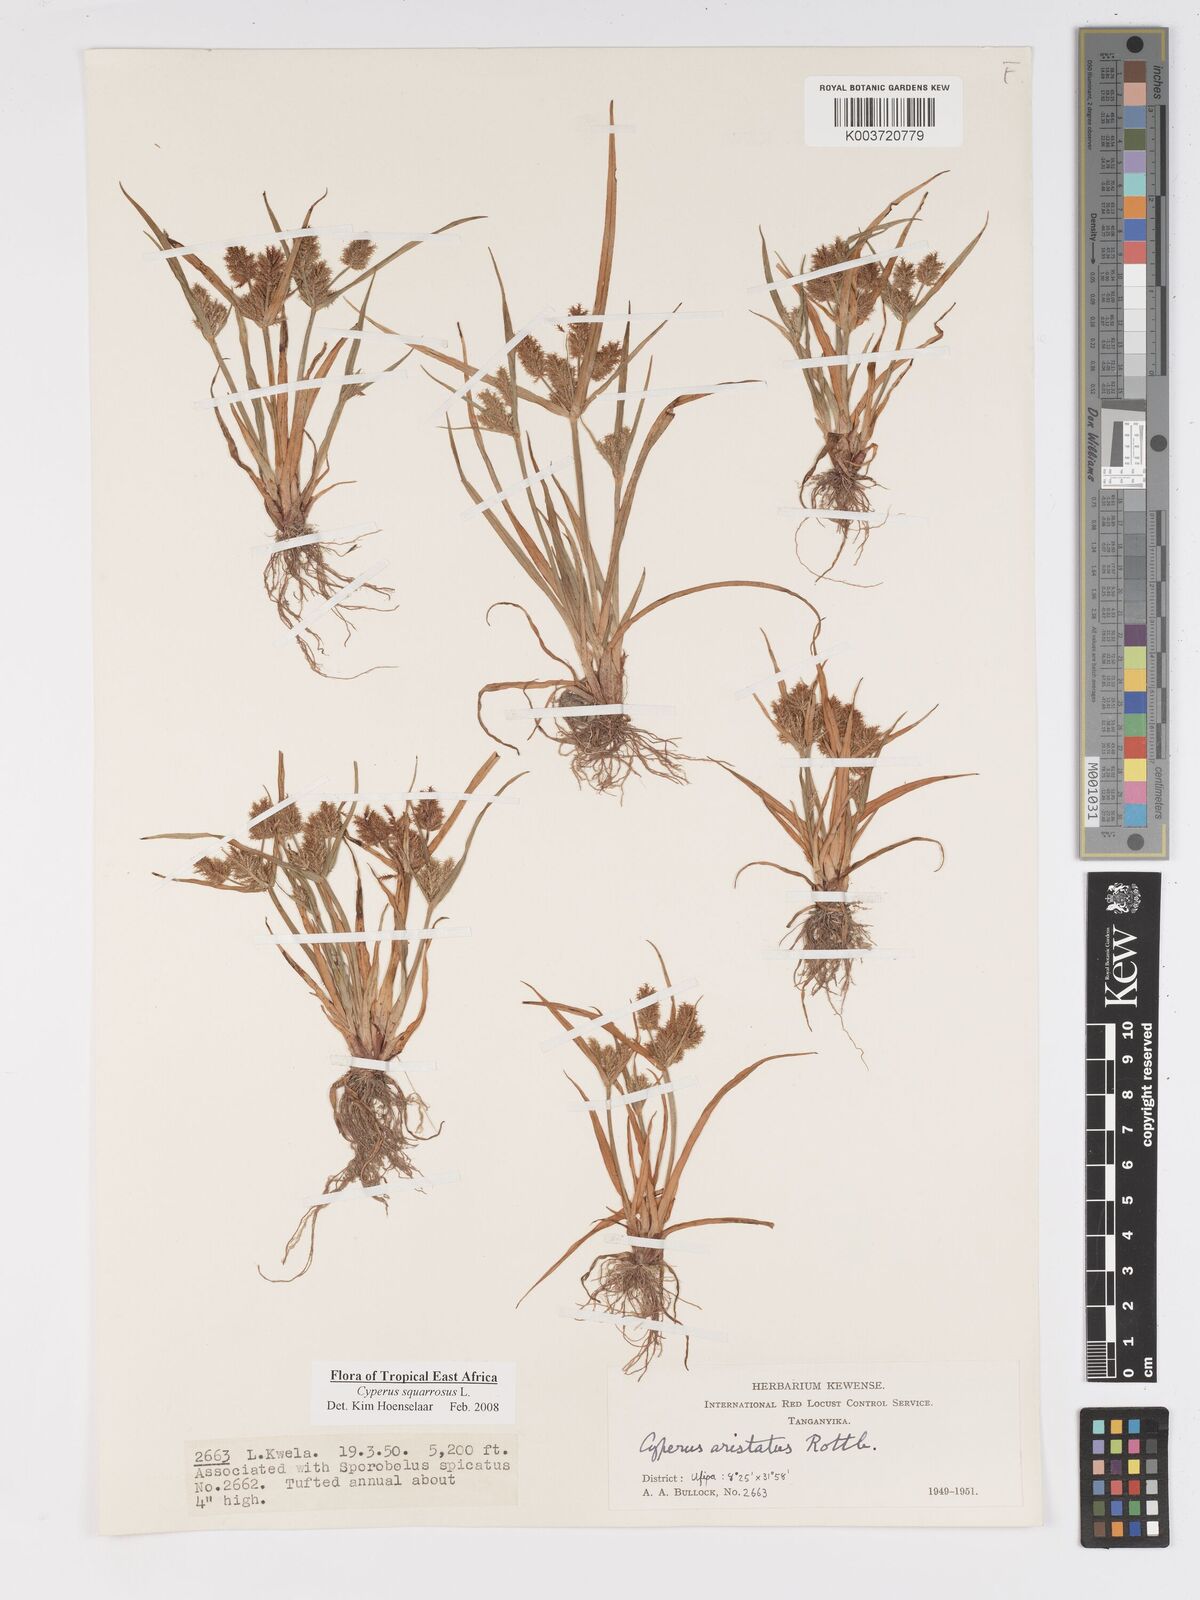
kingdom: Plantae
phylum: Tracheophyta
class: Liliopsida
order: Poales
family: Cyperaceae
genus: Cyperus
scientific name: Cyperus squarrosus
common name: Awned cyperus
